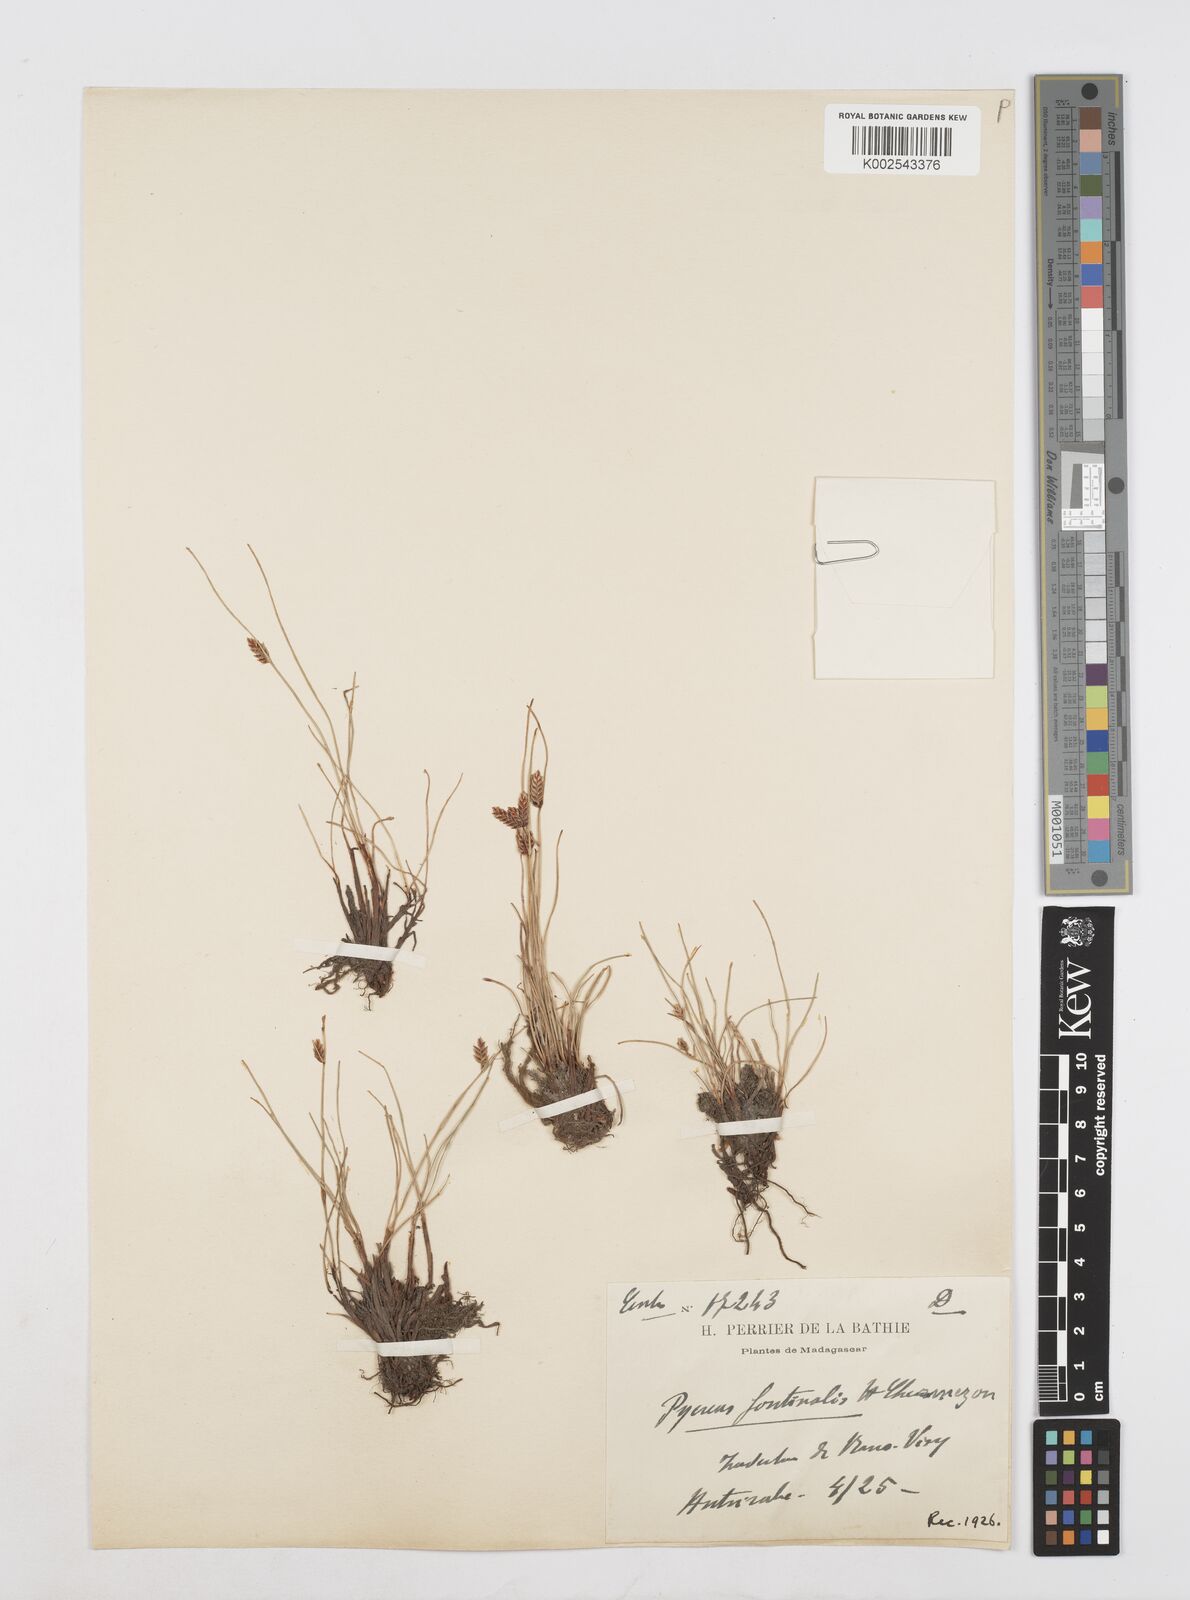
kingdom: Plantae
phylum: Tracheophyta
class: Liliopsida
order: Poales
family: Cyperaceae
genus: Cyperus
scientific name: Cyperus fontinalis
